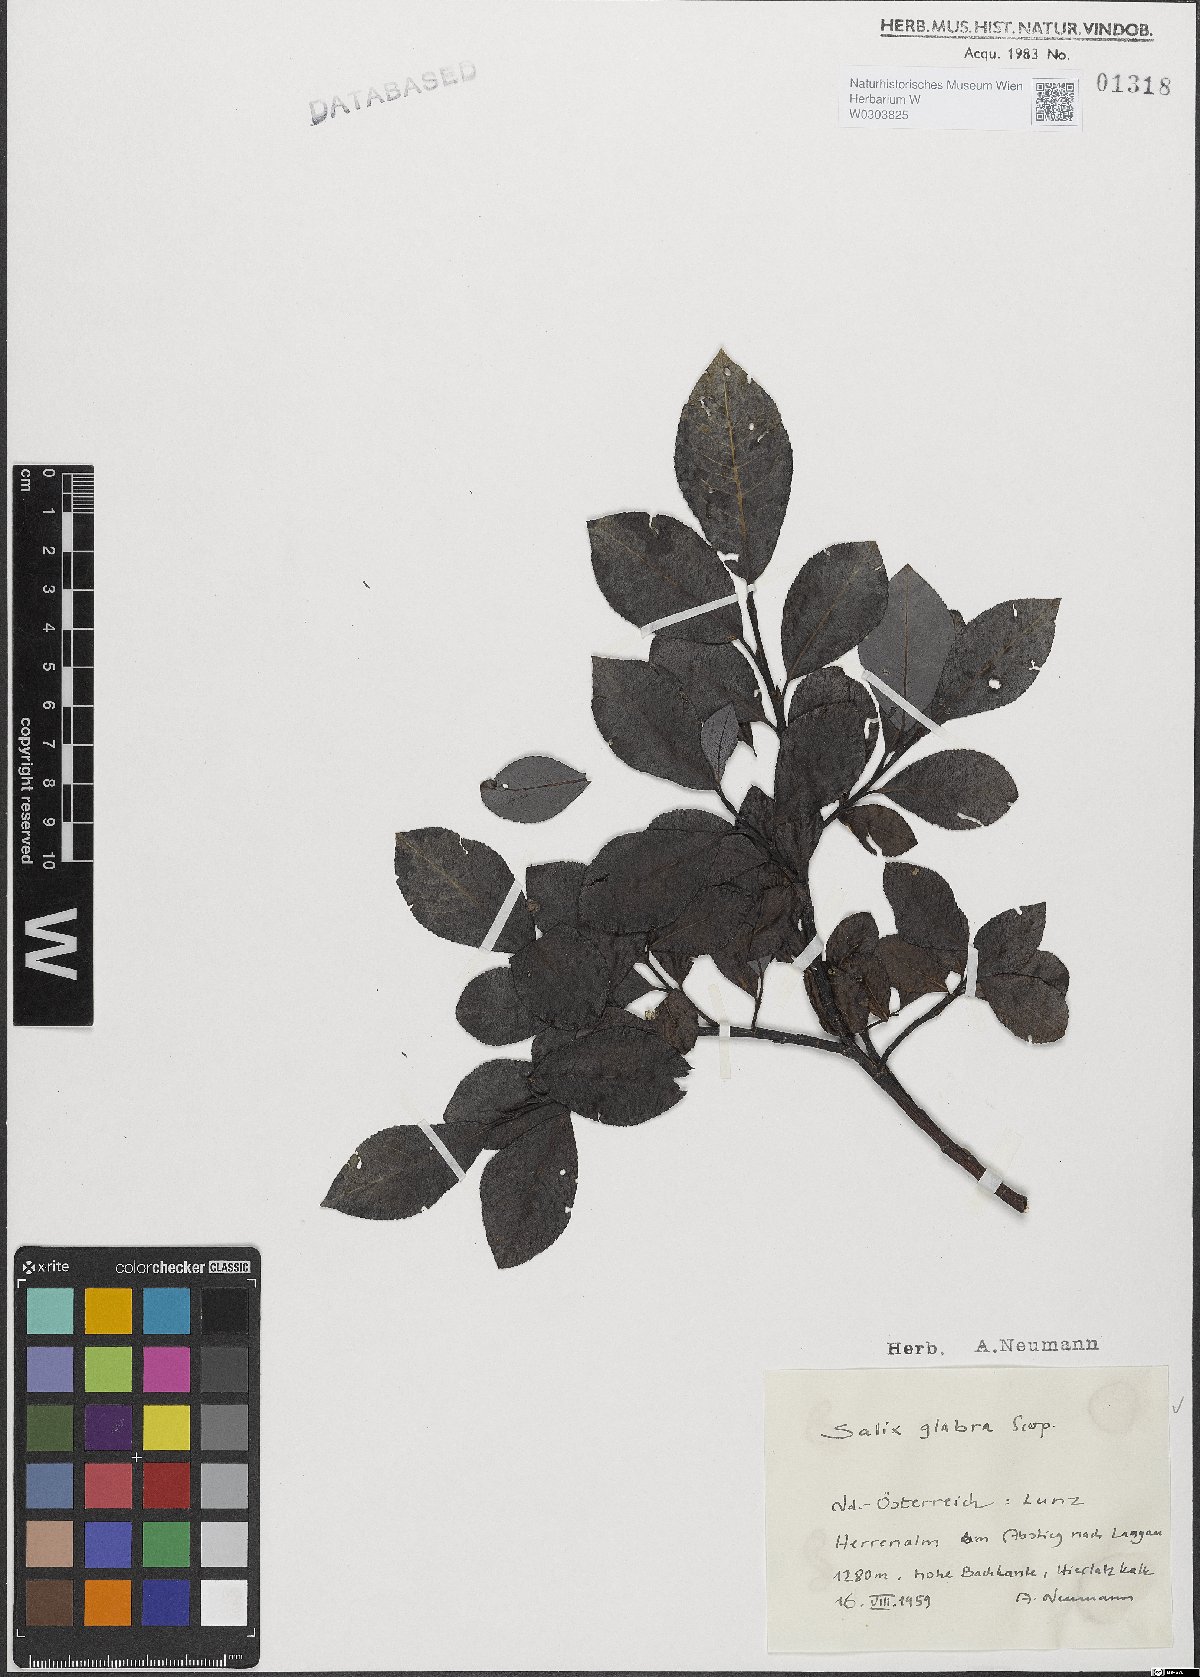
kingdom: Plantae
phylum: Tracheophyta
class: Magnoliopsida
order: Malpighiales
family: Salicaceae
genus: Salix
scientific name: Salix glabra
